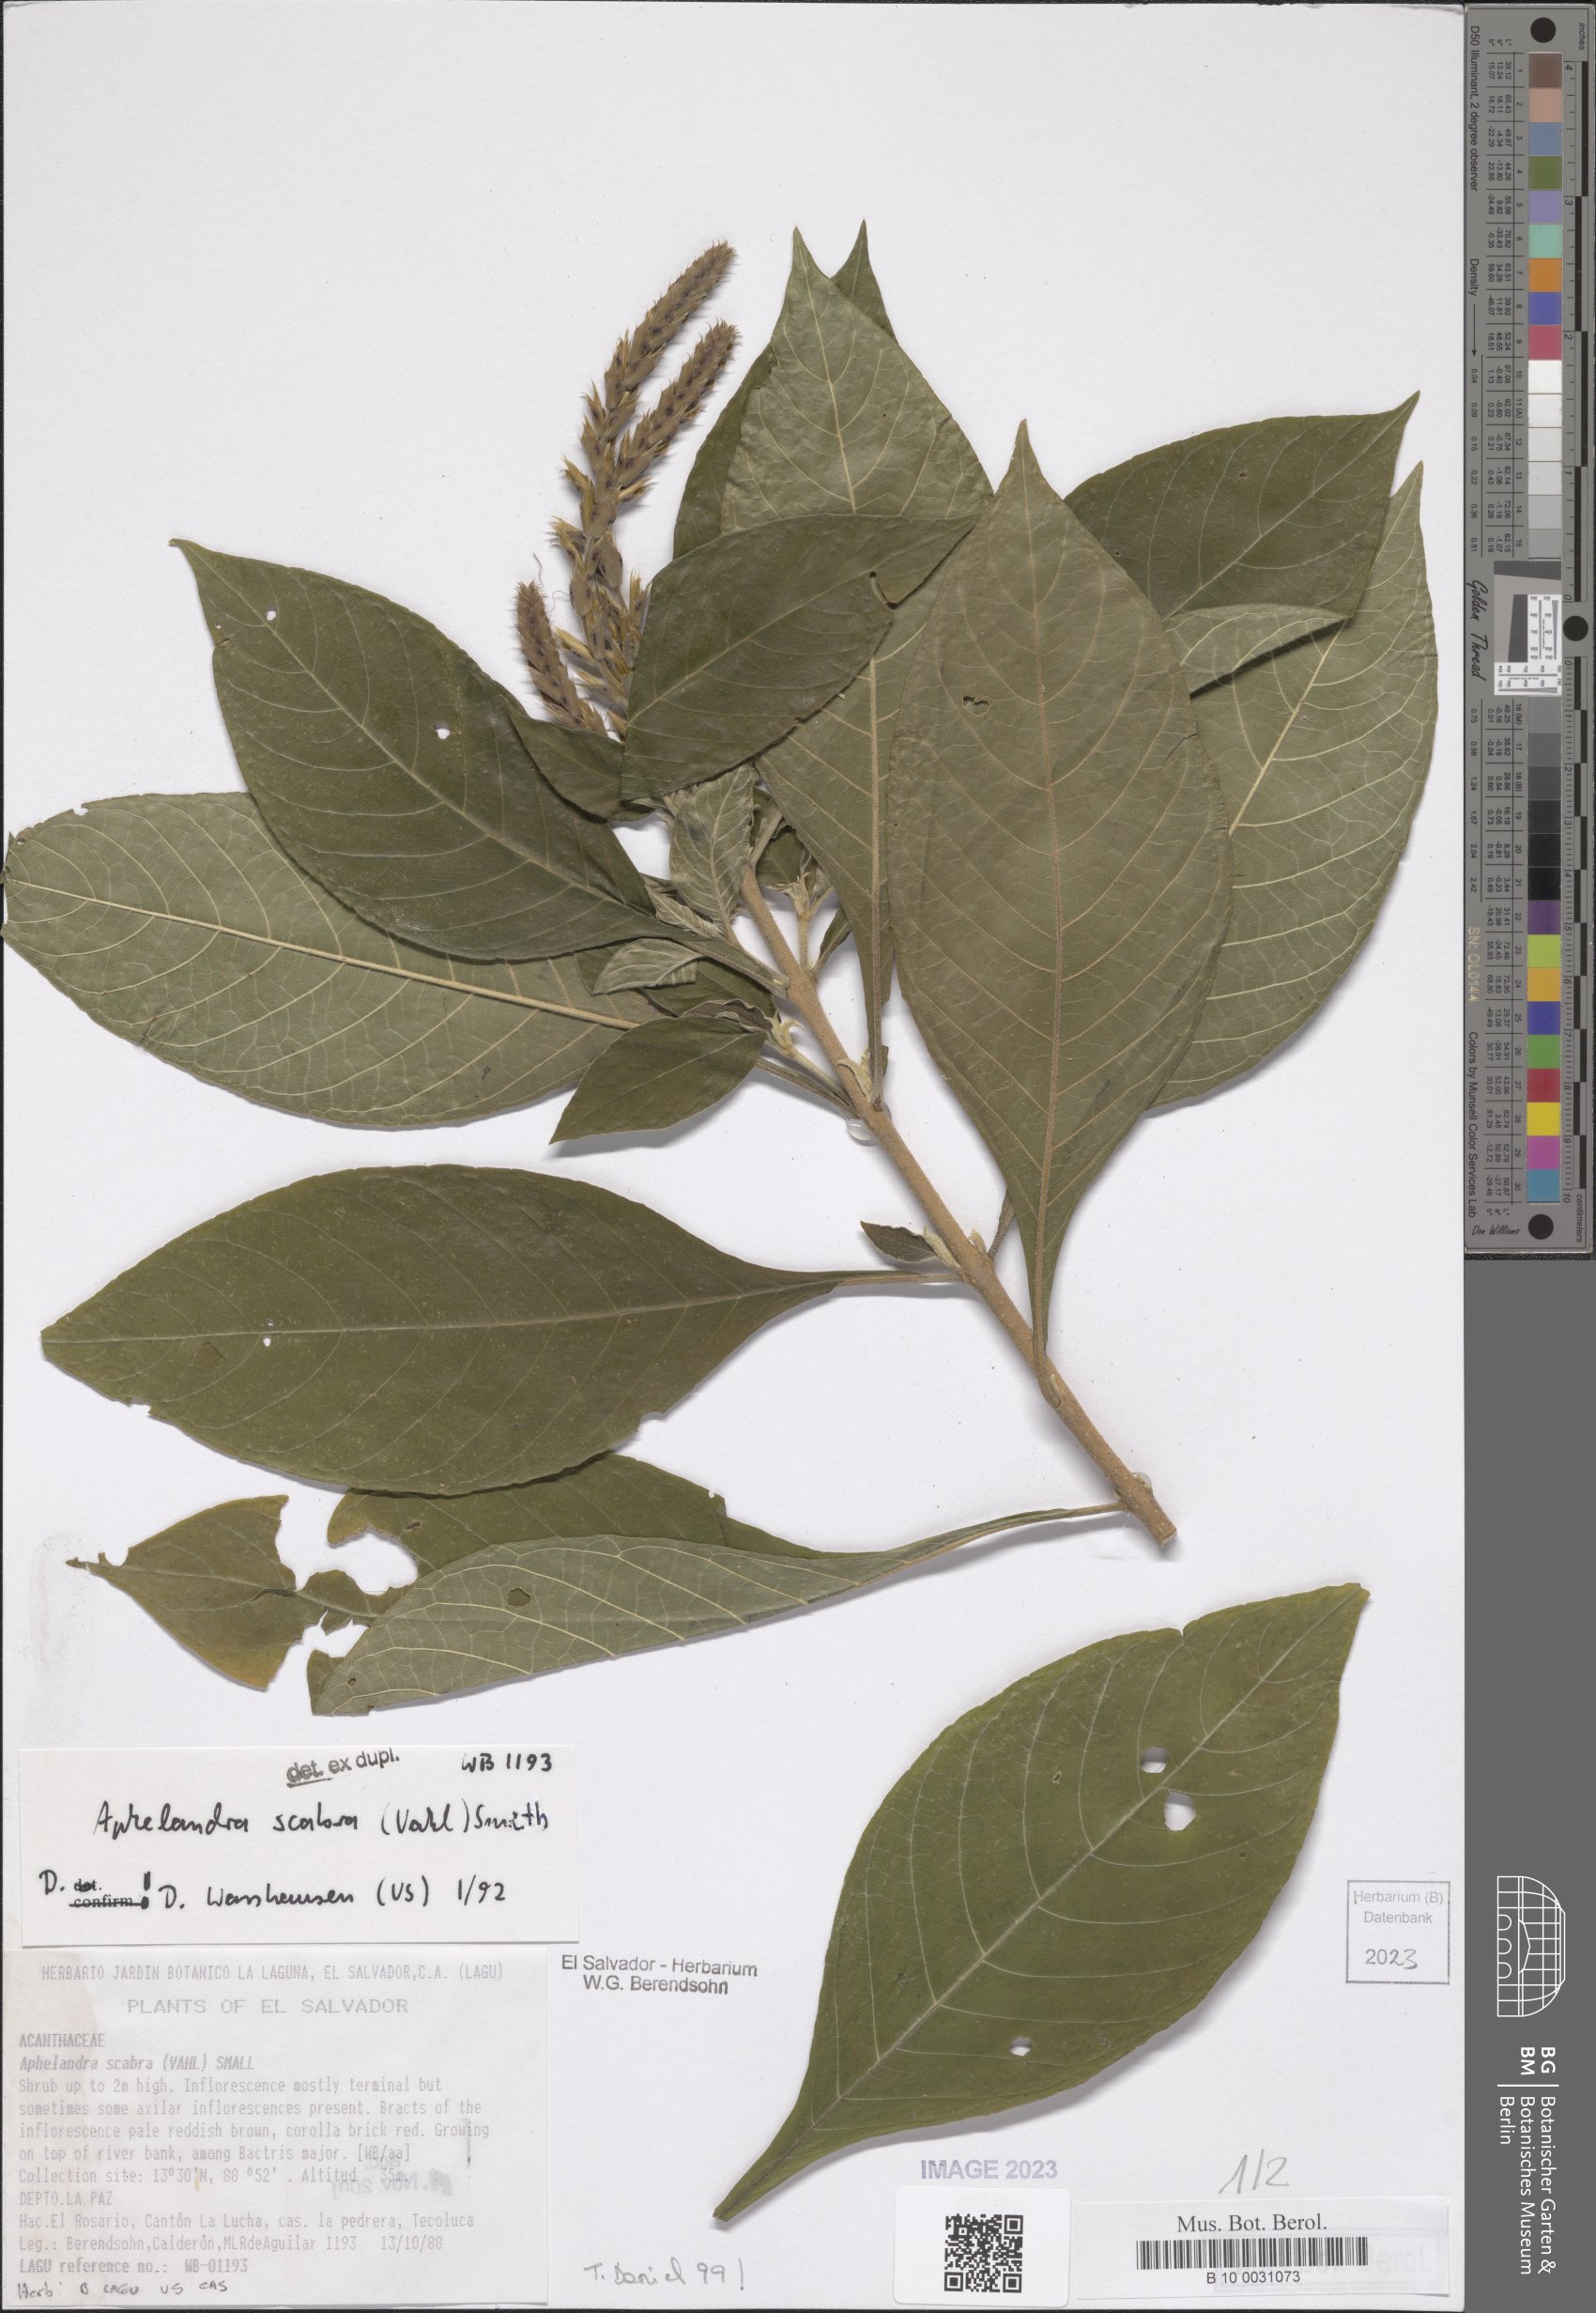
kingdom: Plantae
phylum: Tracheophyta
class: Magnoliopsida
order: Lamiales
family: Acanthaceae
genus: Aphelandra
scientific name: Aphelandra scabra
